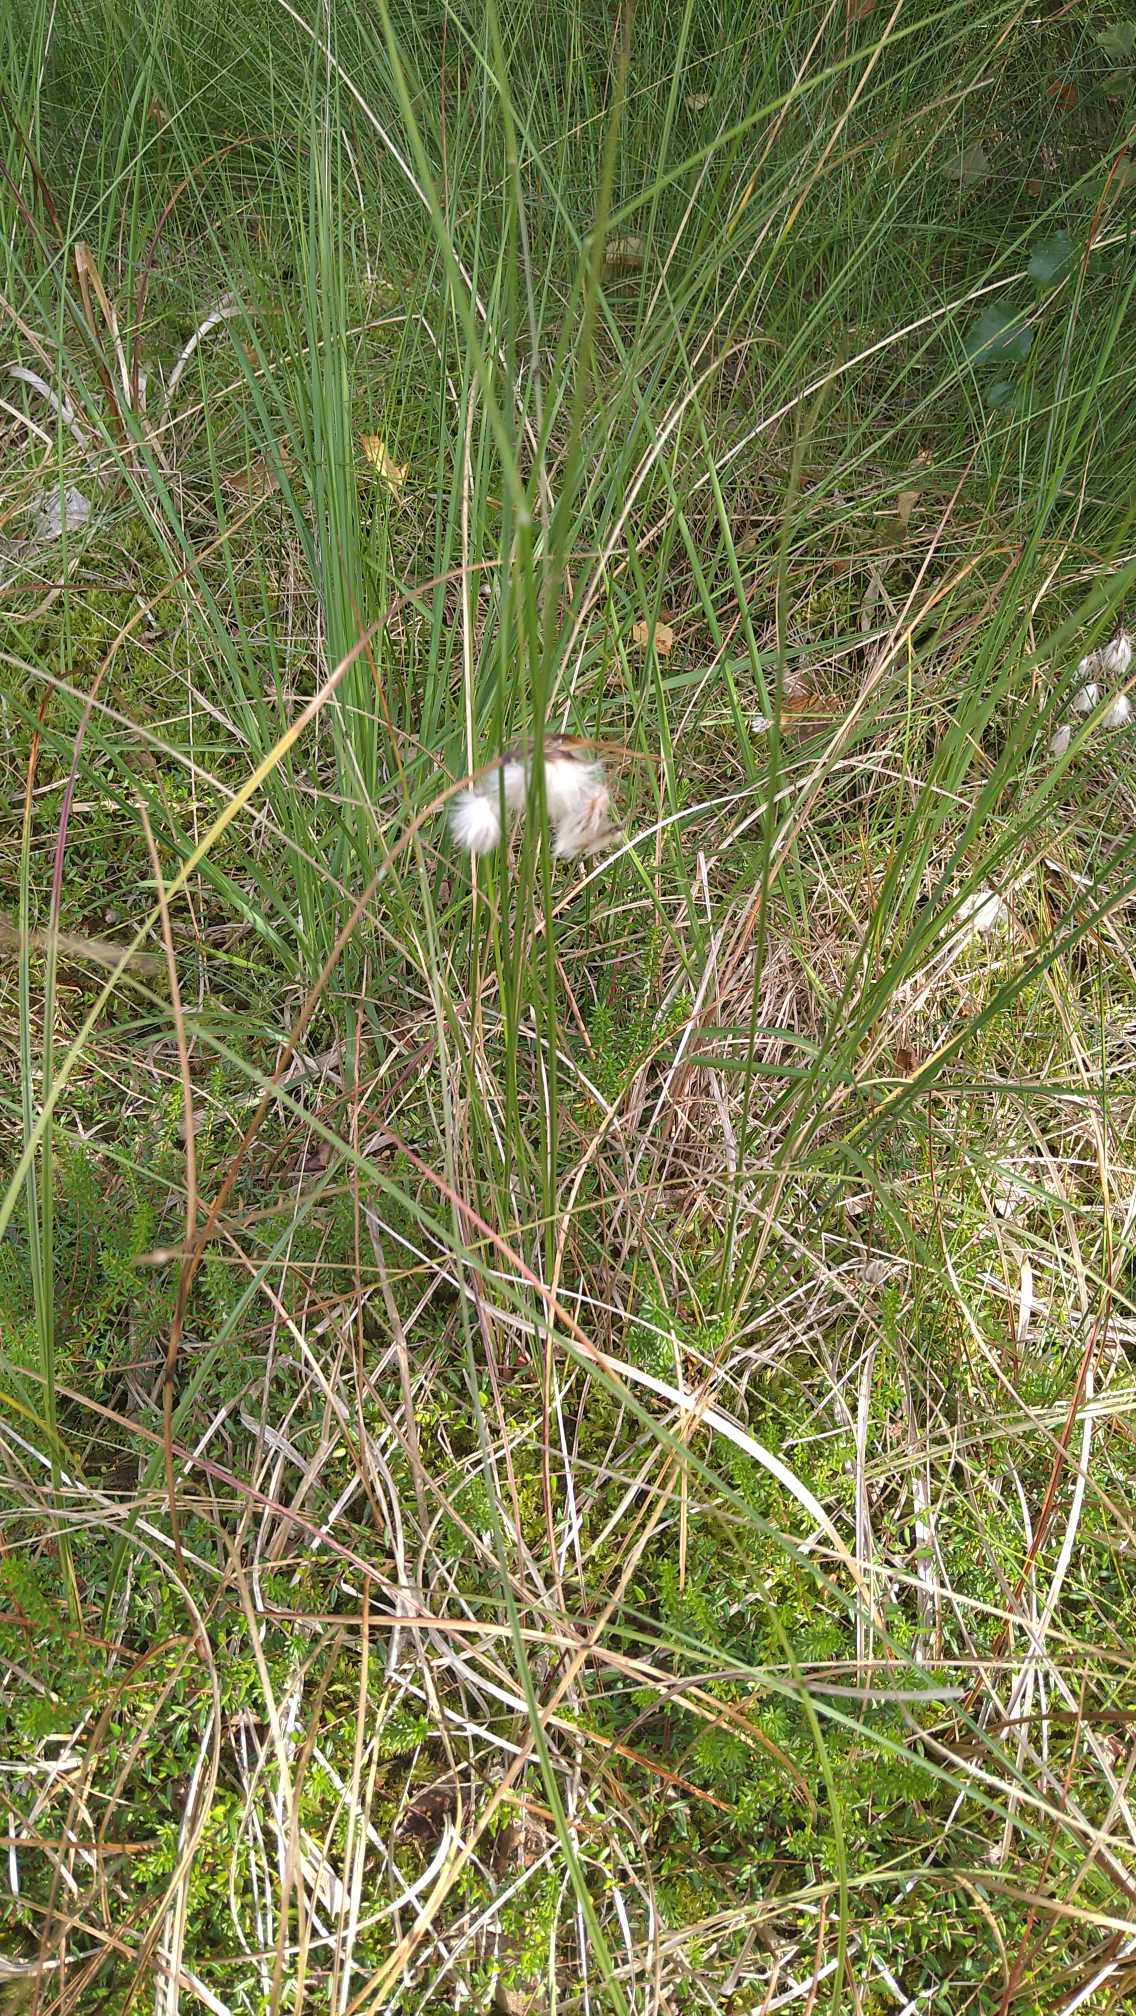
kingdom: Plantae
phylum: Tracheophyta
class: Liliopsida
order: Poales
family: Cyperaceae
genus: Eriophorum
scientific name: Eriophorum angustifolium
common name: Smalbladet kæruld
